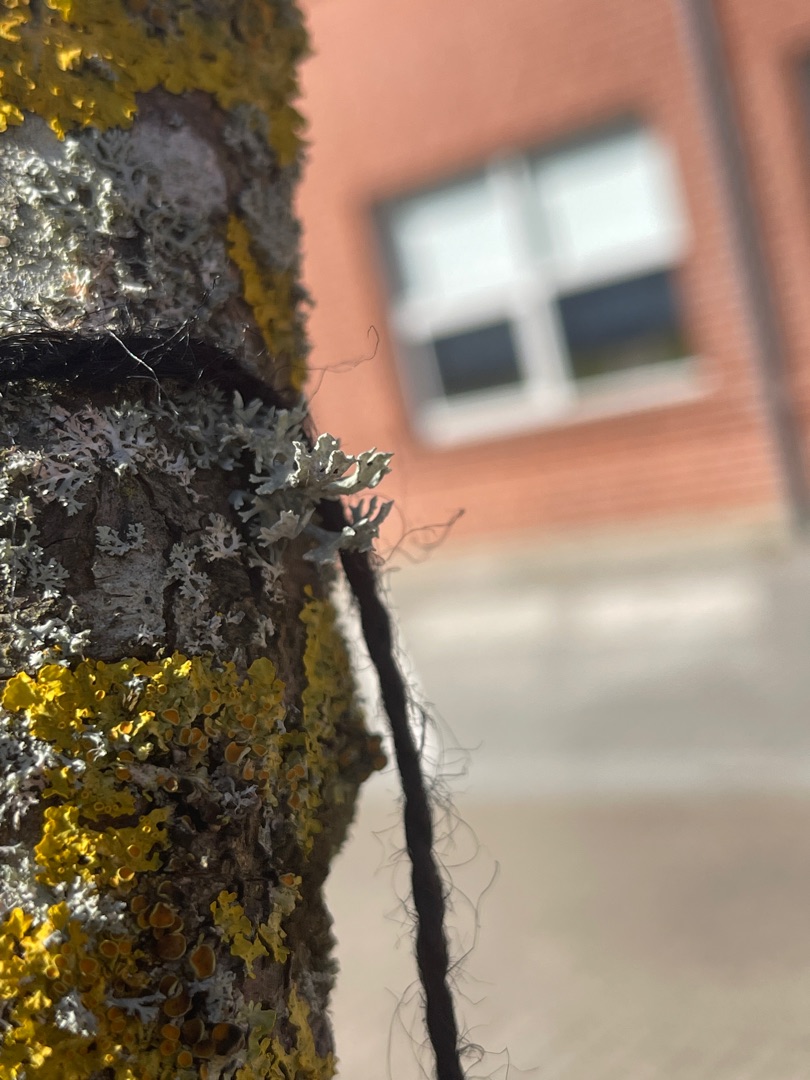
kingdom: Fungi
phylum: Ascomycota
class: Lecanoromycetes
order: Lecanorales
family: Parmeliaceae
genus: Evernia
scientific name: Evernia prunastri
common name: Almindelig slåenlav
